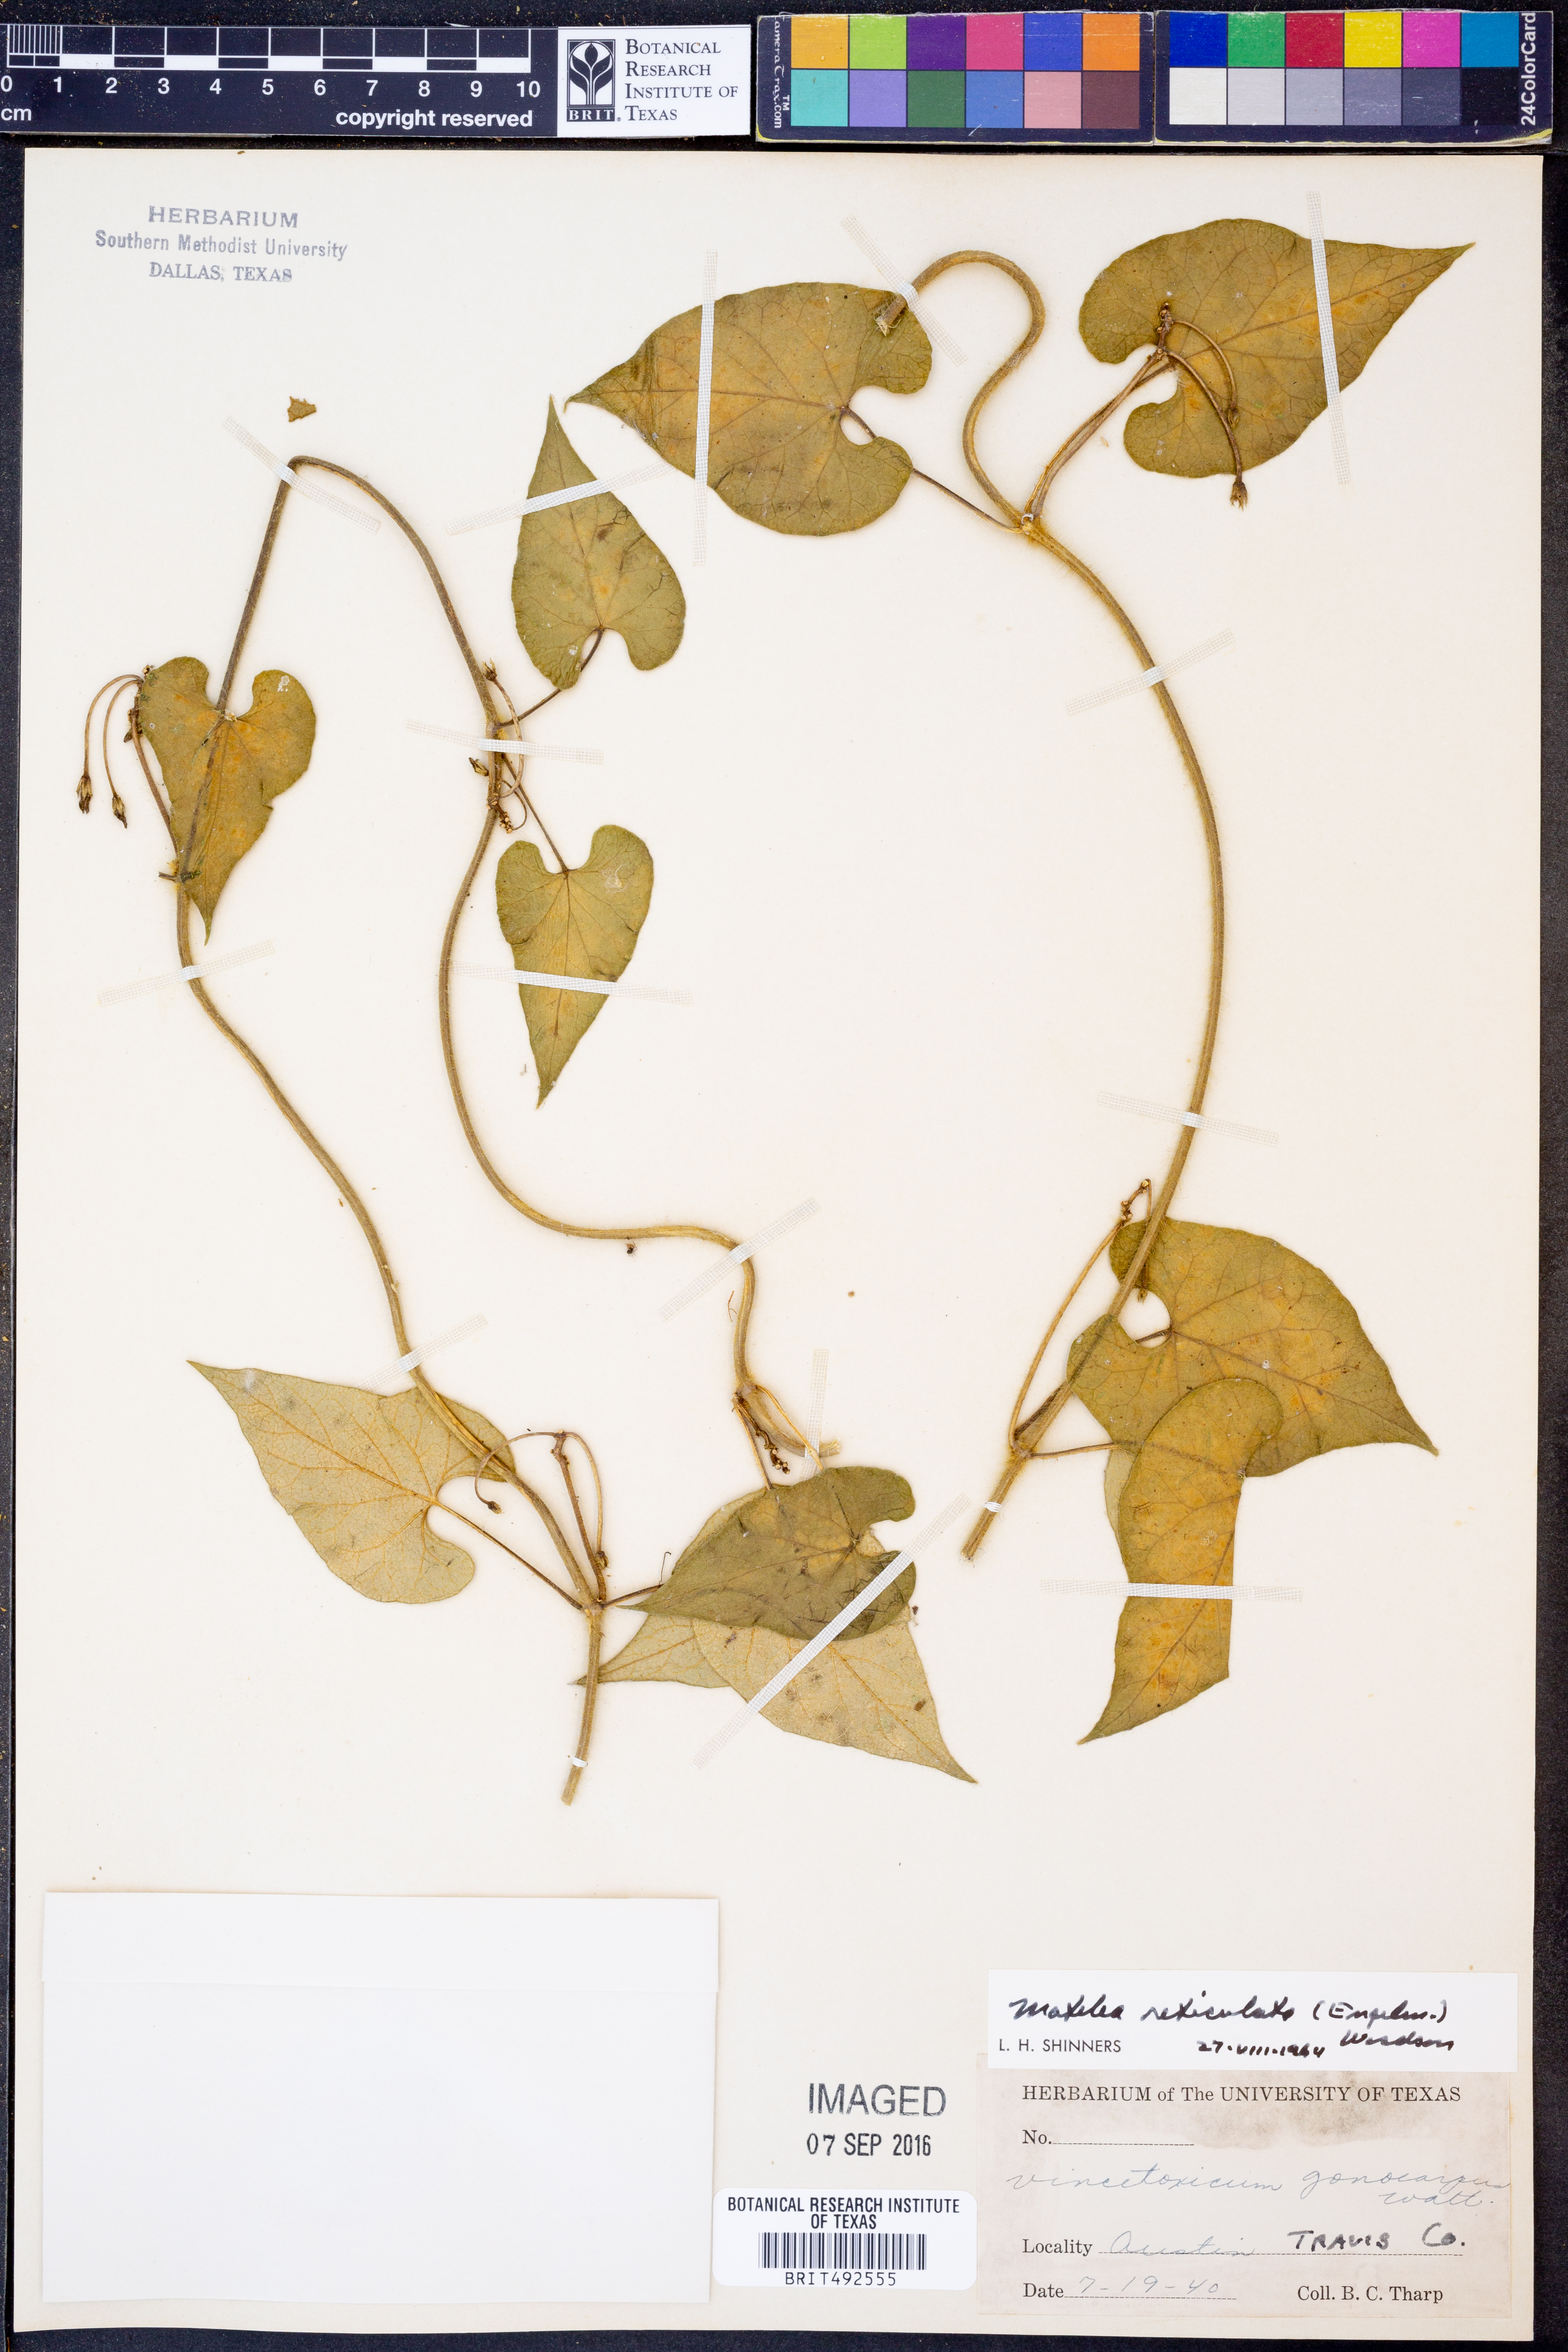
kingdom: Plantae
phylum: Tracheophyta
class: Magnoliopsida
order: Gentianales
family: Apocynaceae
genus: Dictyanthus
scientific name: Dictyanthus reticulatus
